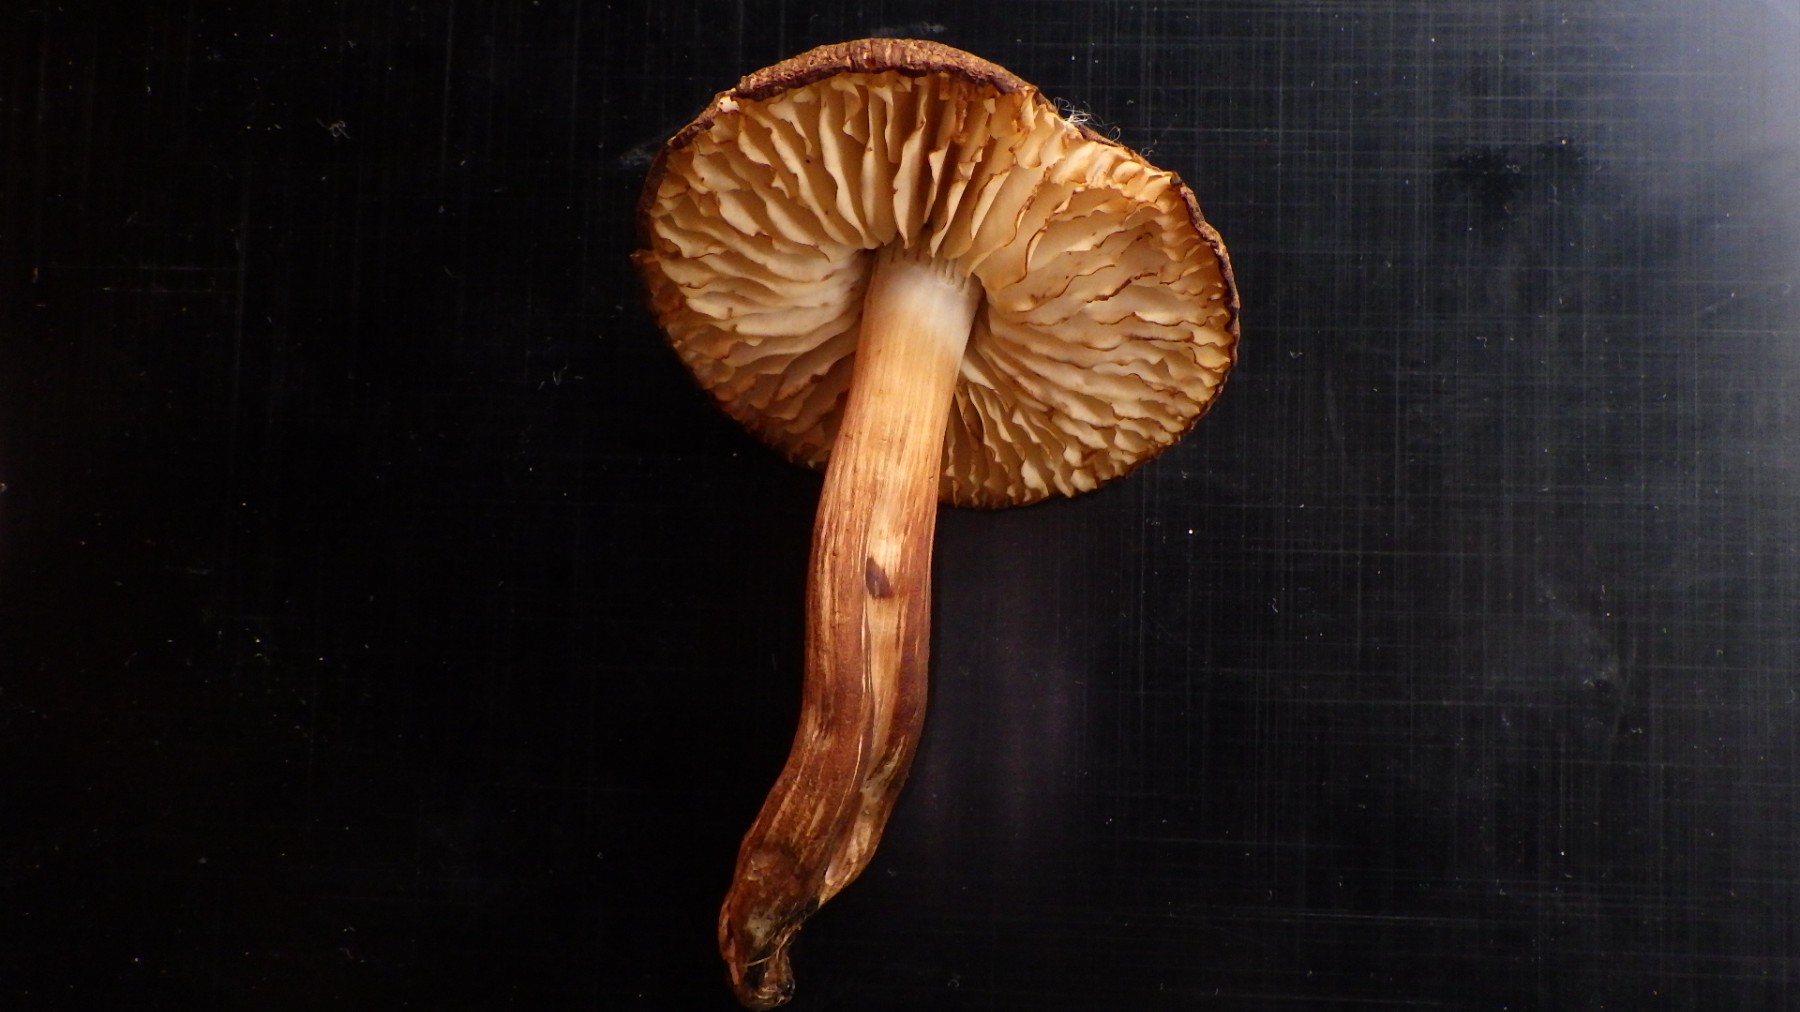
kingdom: Fungi
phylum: Basidiomycota
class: Agaricomycetes
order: Agaricales
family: Hygrophoraceae
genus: Hygrocybe
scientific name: Hygrocybe ingrata
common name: Jensens vokshat
